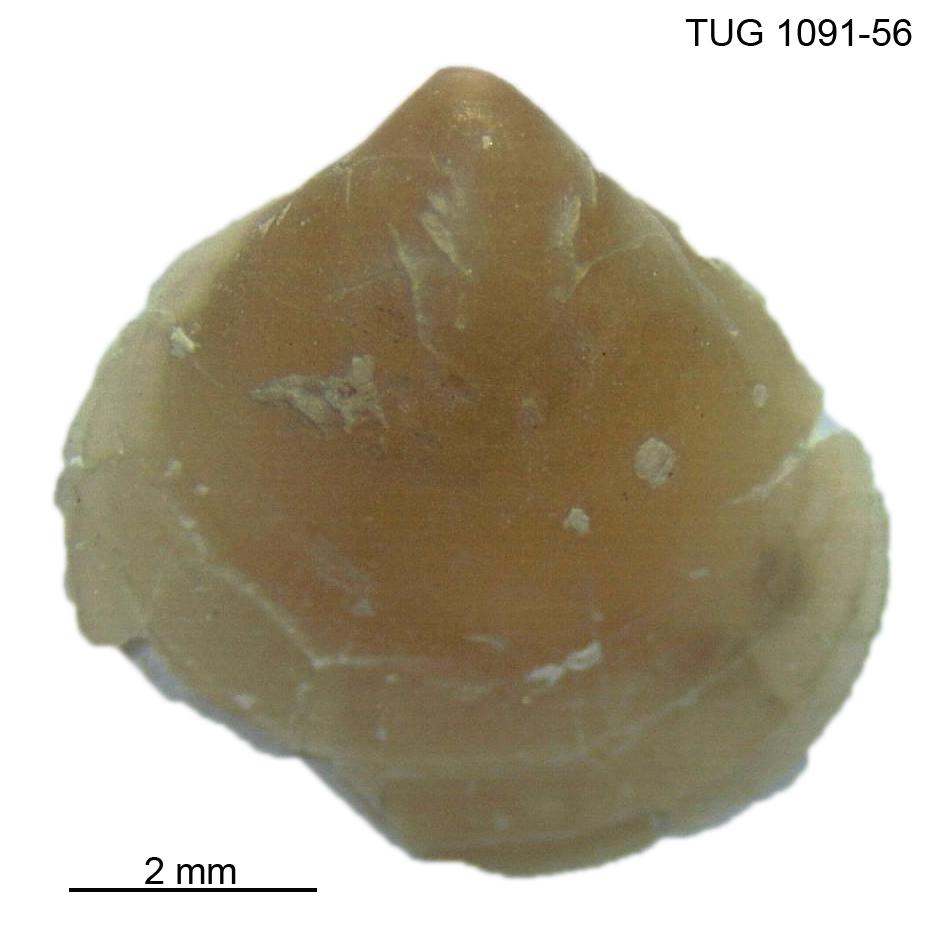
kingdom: Animalia
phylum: Brachiopoda
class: Rhynchonellata
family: Atrypidae
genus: Atrypa
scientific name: Atrypa
